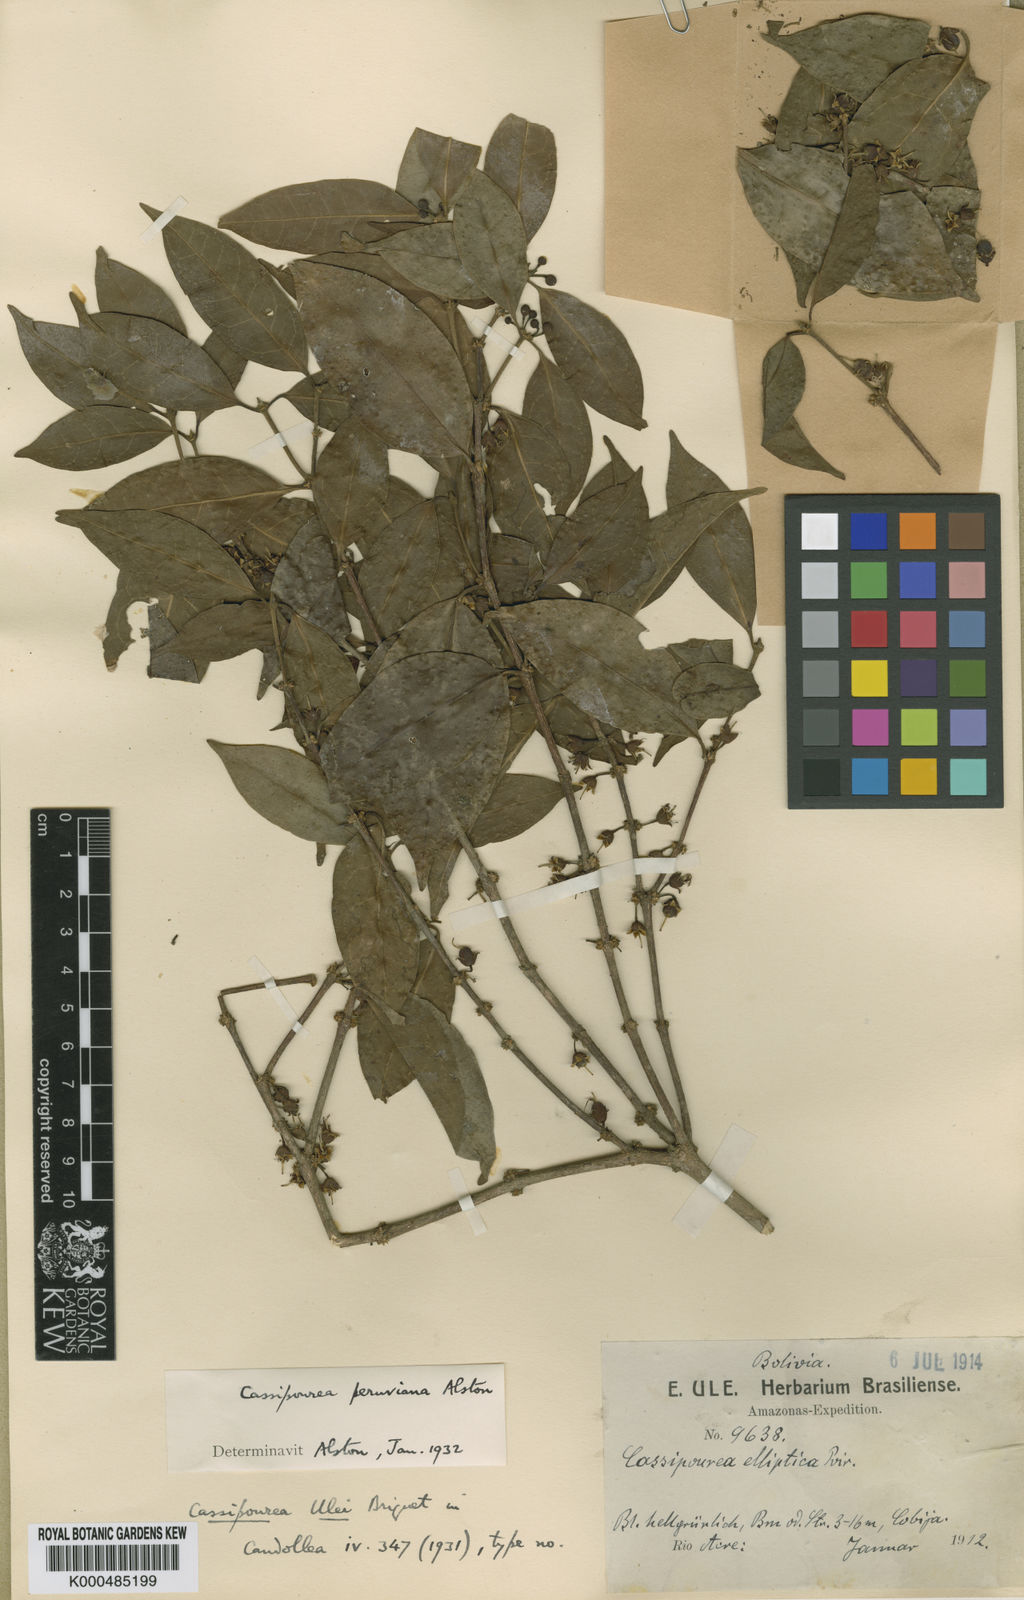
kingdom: Plantae
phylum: Tracheophyta
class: Magnoliopsida
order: Malpighiales
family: Rhizophoraceae
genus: Cassipourea
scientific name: Cassipourea peruviana
